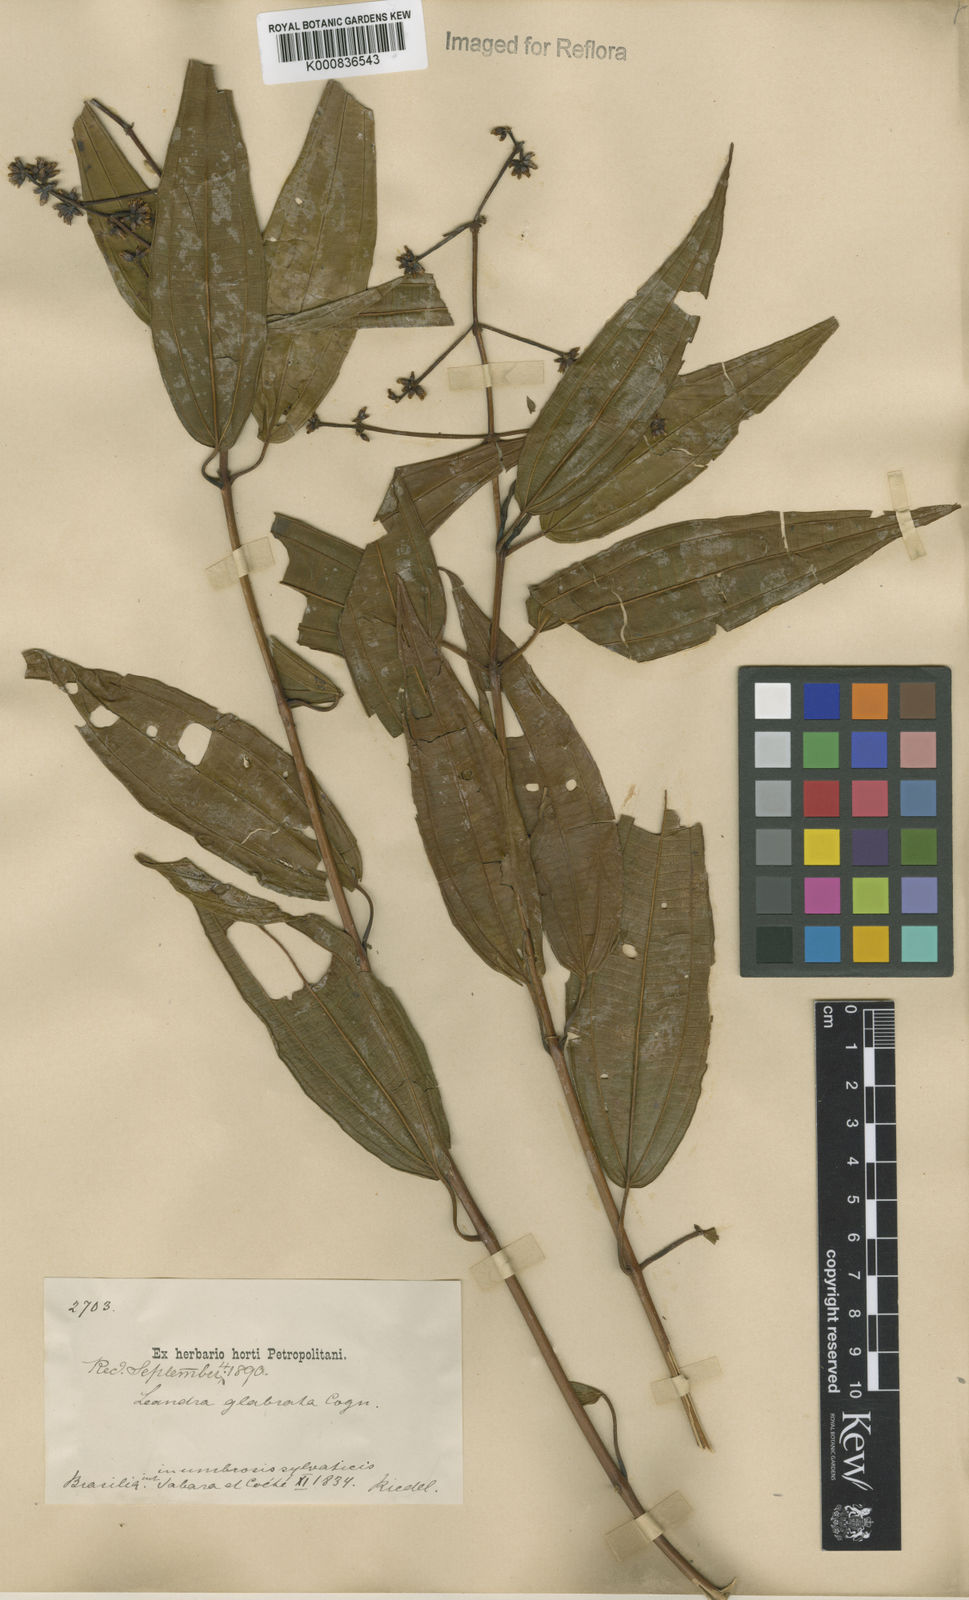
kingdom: Plantae
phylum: Tracheophyta
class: Magnoliopsida
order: Myrtales
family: Melastomataceae
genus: Miconia
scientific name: Miconia dolichostachya
